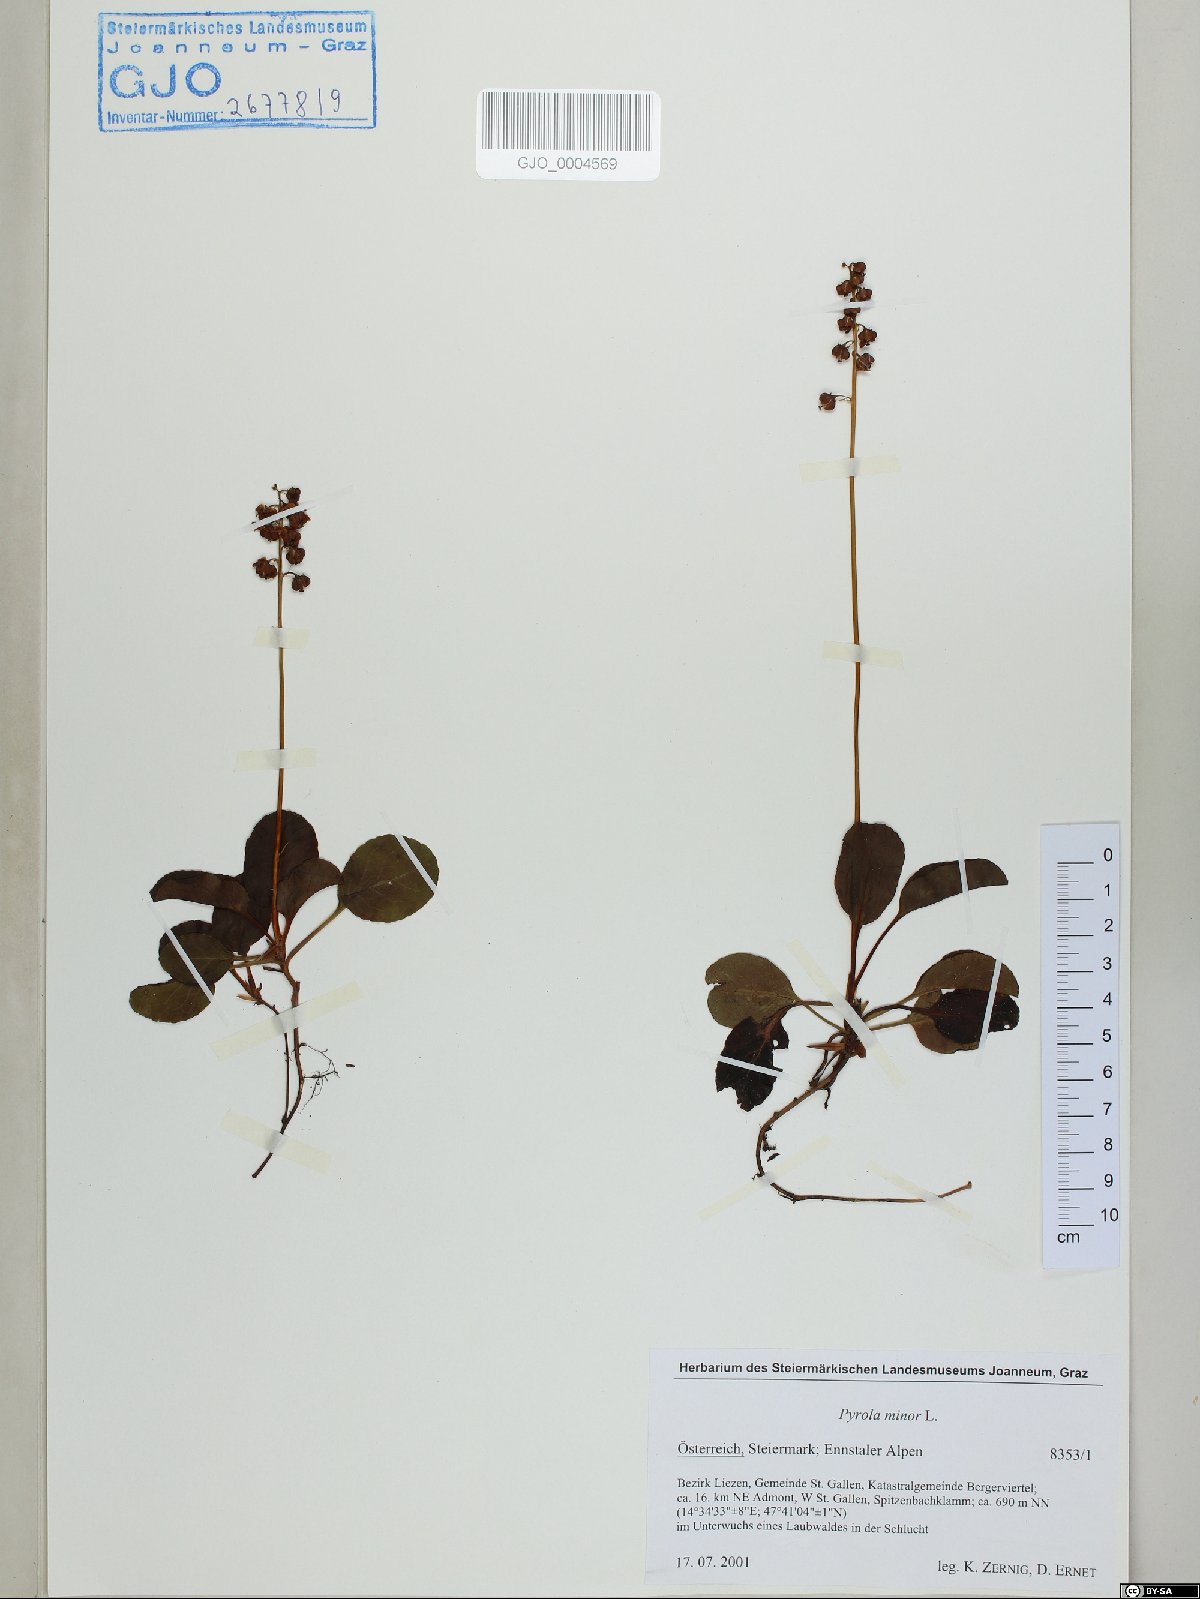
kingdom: Plantae
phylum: Tracheophyta
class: Magnoliopsida
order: Ericales
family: Ericaceae
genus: Pyrola
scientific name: Pyrola minor
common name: Common wintergreen
